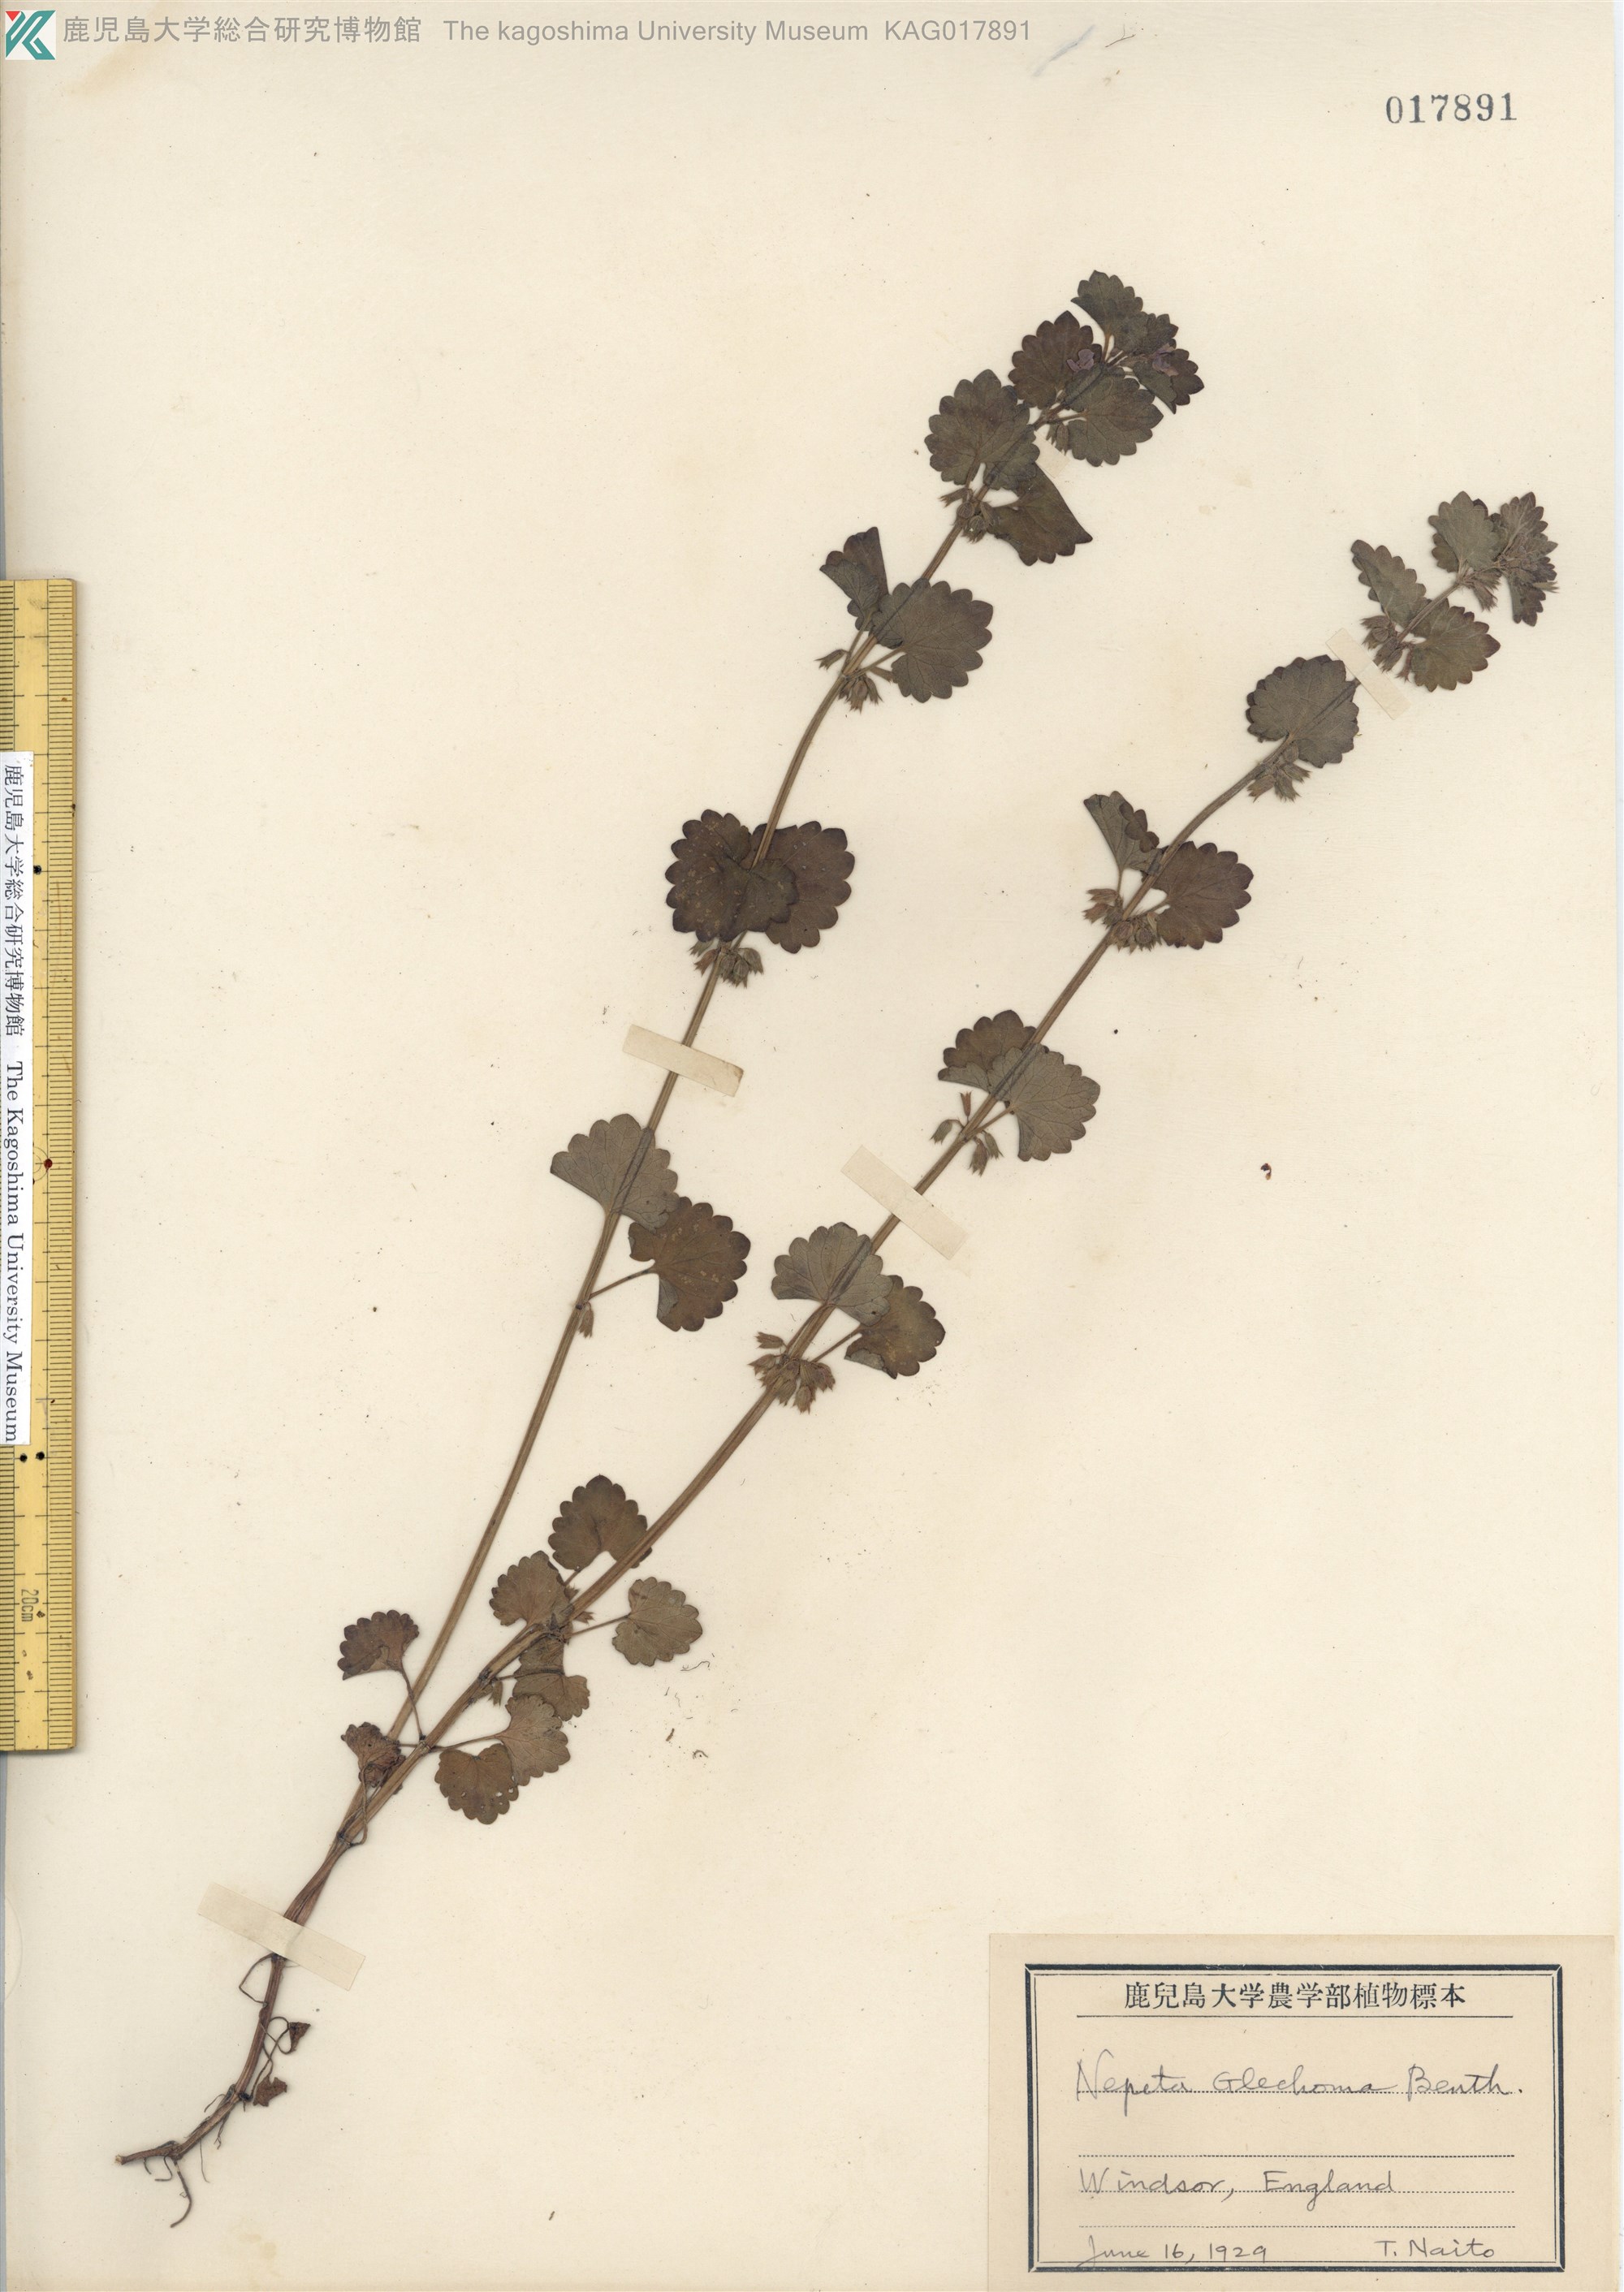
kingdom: Plantae
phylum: Tracheophyta
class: Magnoliopsida
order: Lamiales
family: Lamiaceae
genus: Glechoma
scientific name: Glechoma hederacea
